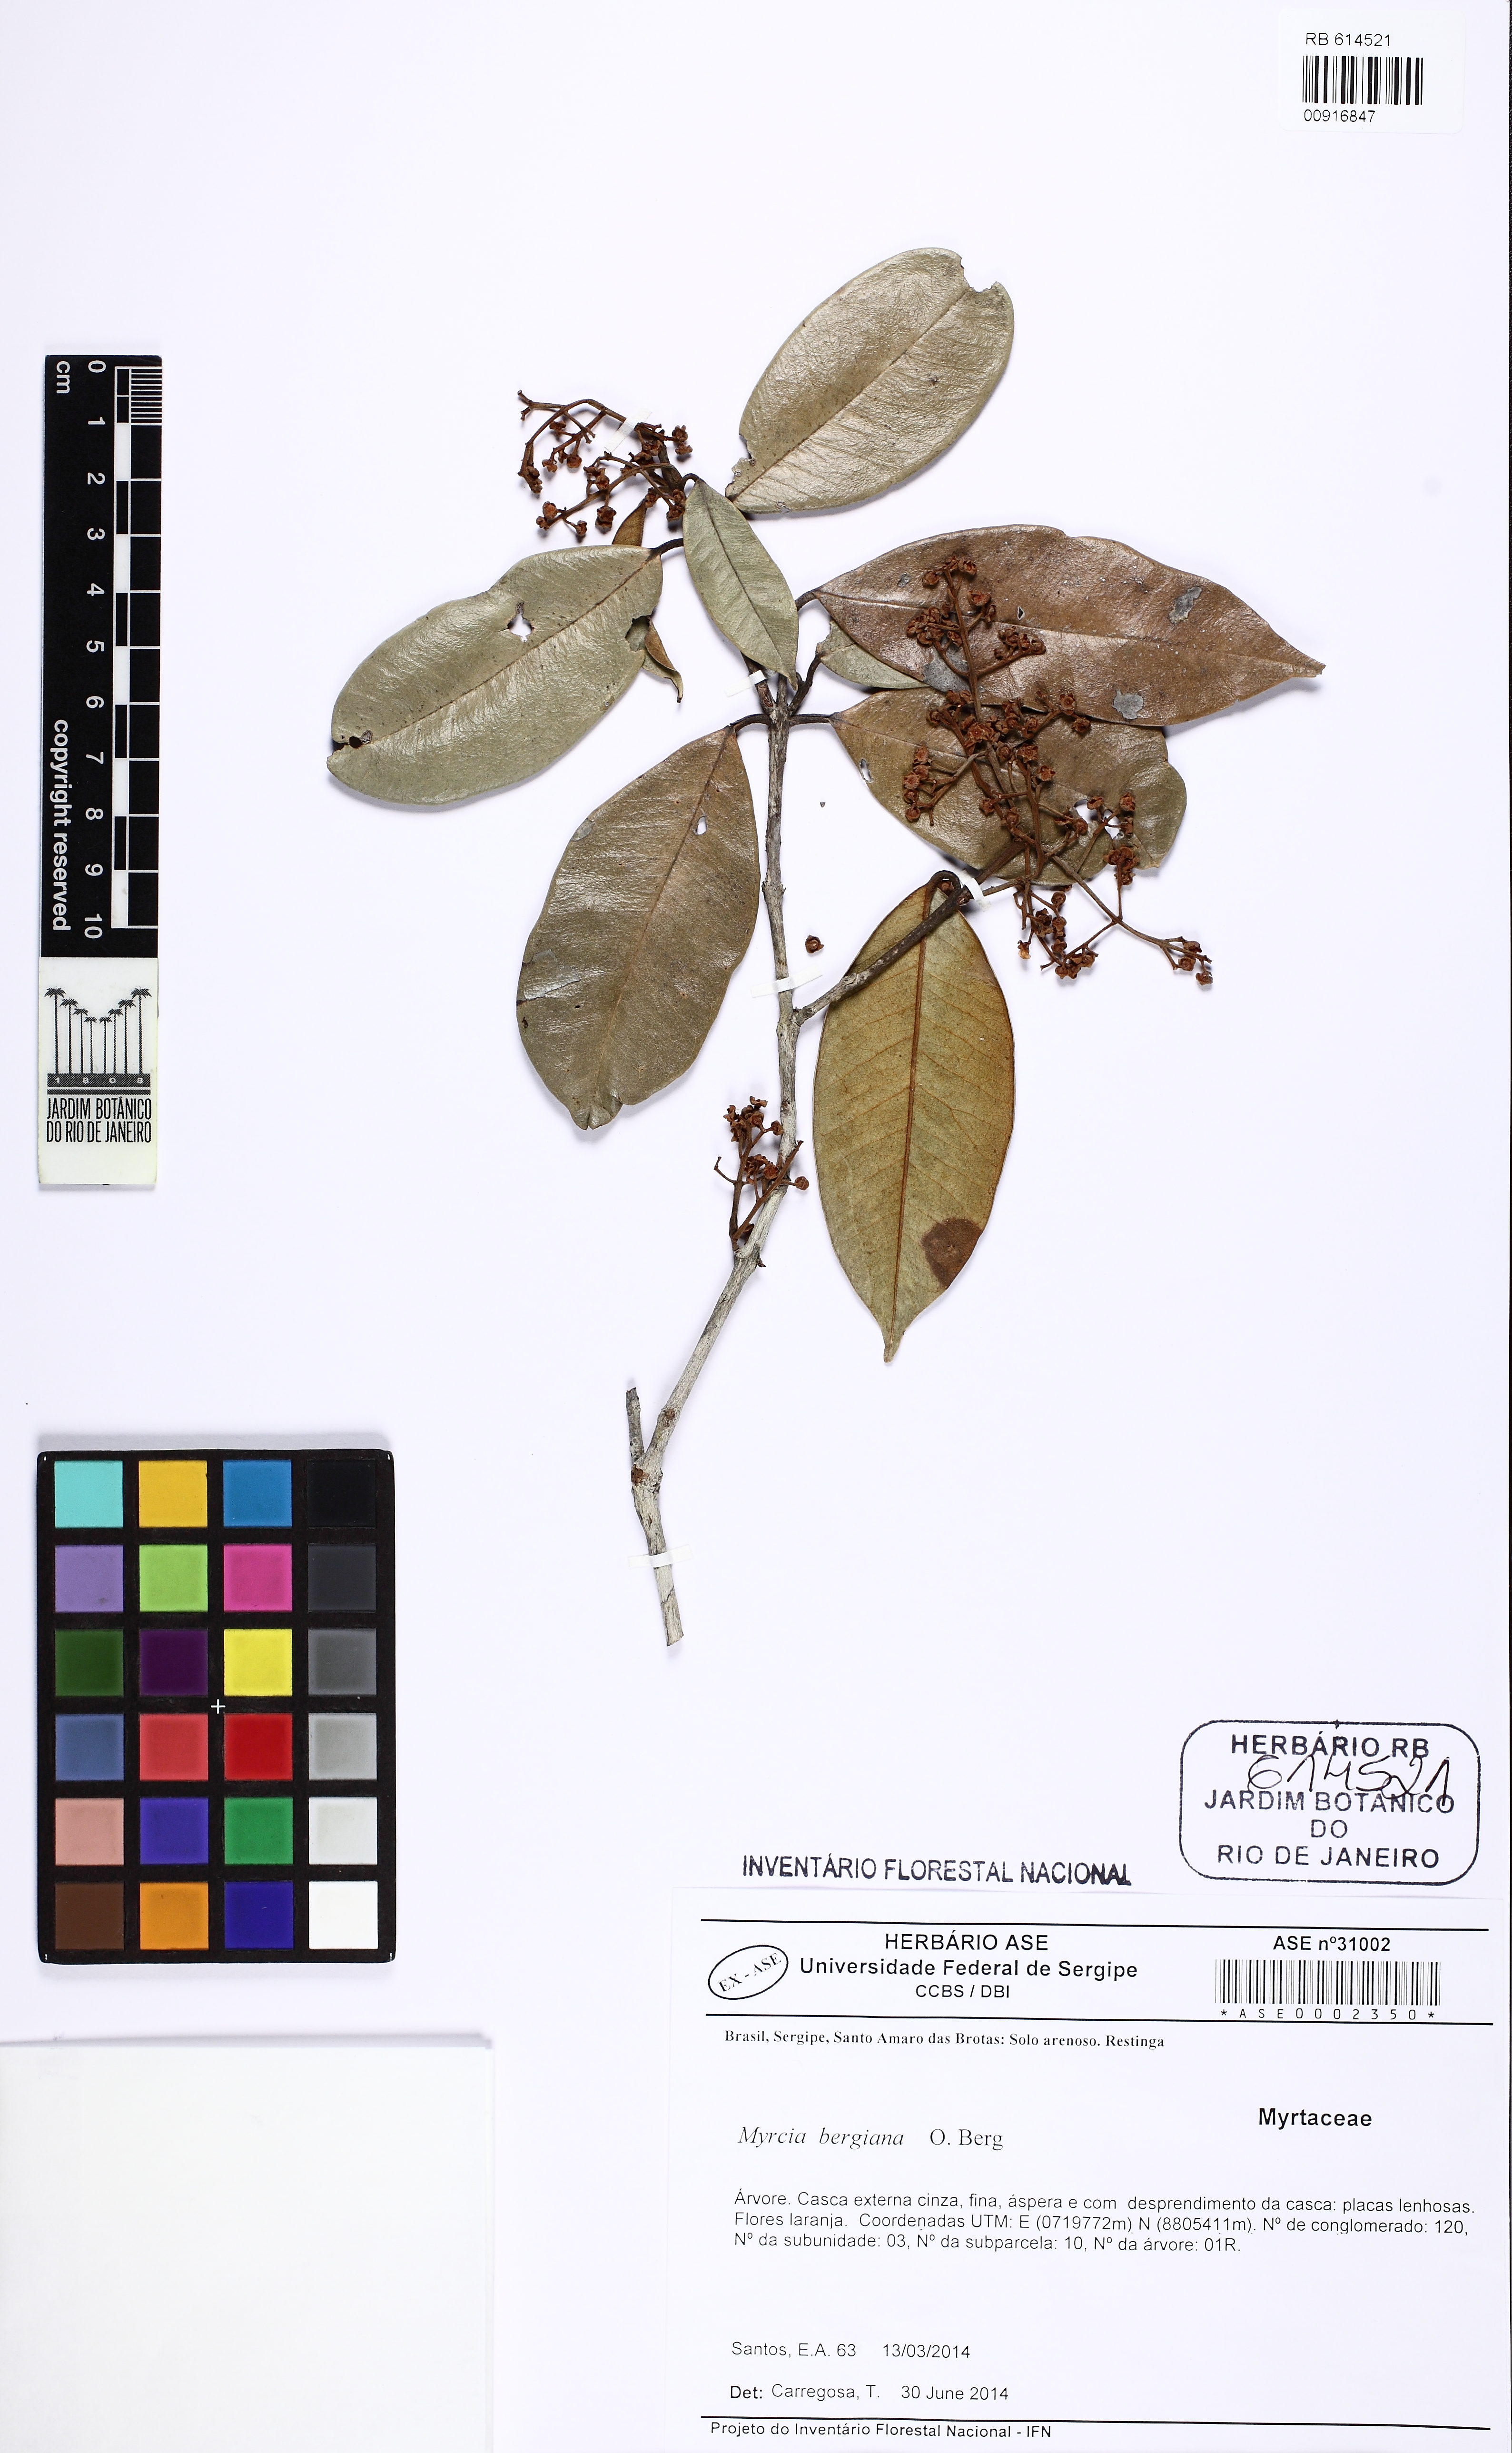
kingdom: Plantae
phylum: Tracheophyta
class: Magnoliopsida
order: Myrtales
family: Myrtaceae
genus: Myrcia
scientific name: Myrcia bergiana
